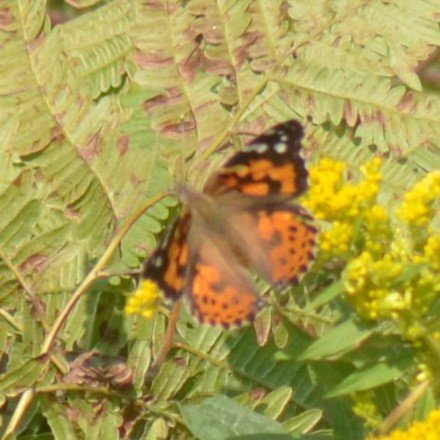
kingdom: Animalia
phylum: Arthropoda
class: Insecta
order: Lepidoptera
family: Nymphalidae
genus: Vanessa
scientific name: Vanessa cardui
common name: Painted Lady
